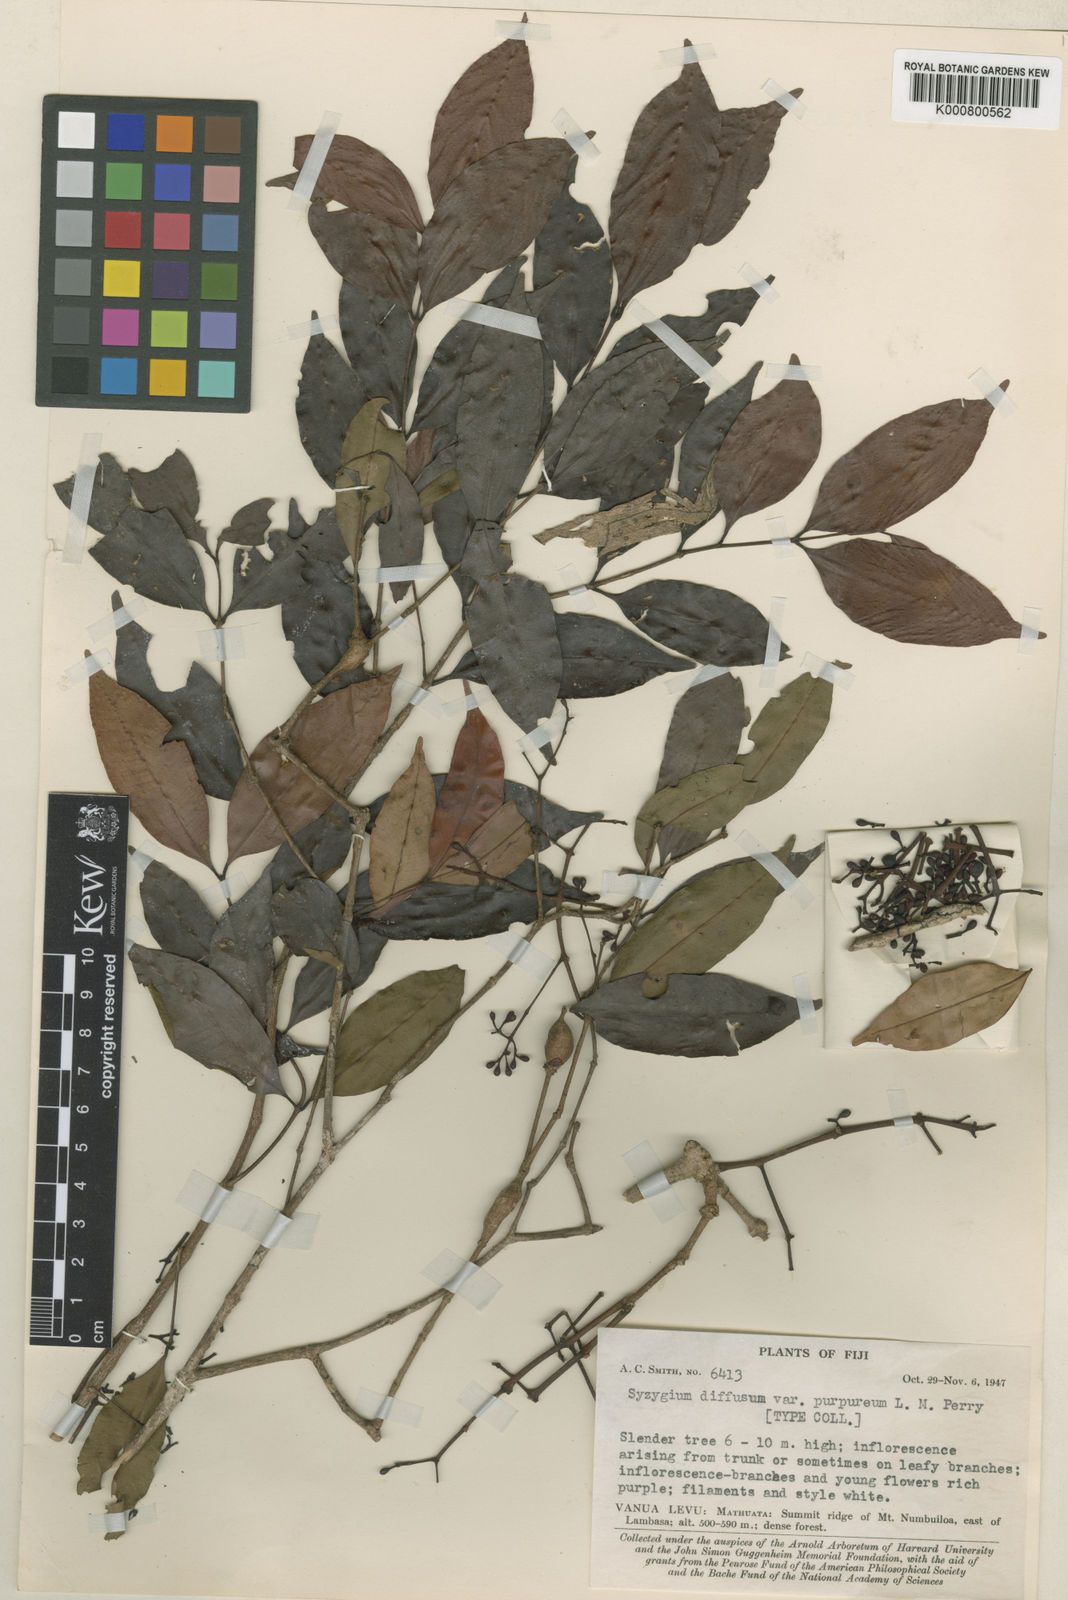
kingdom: Plantae
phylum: Tracheophyta
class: Magnoliopsida
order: Myrtales
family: Myrtaceae
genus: Syzygium
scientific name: Syzygium diffusum
